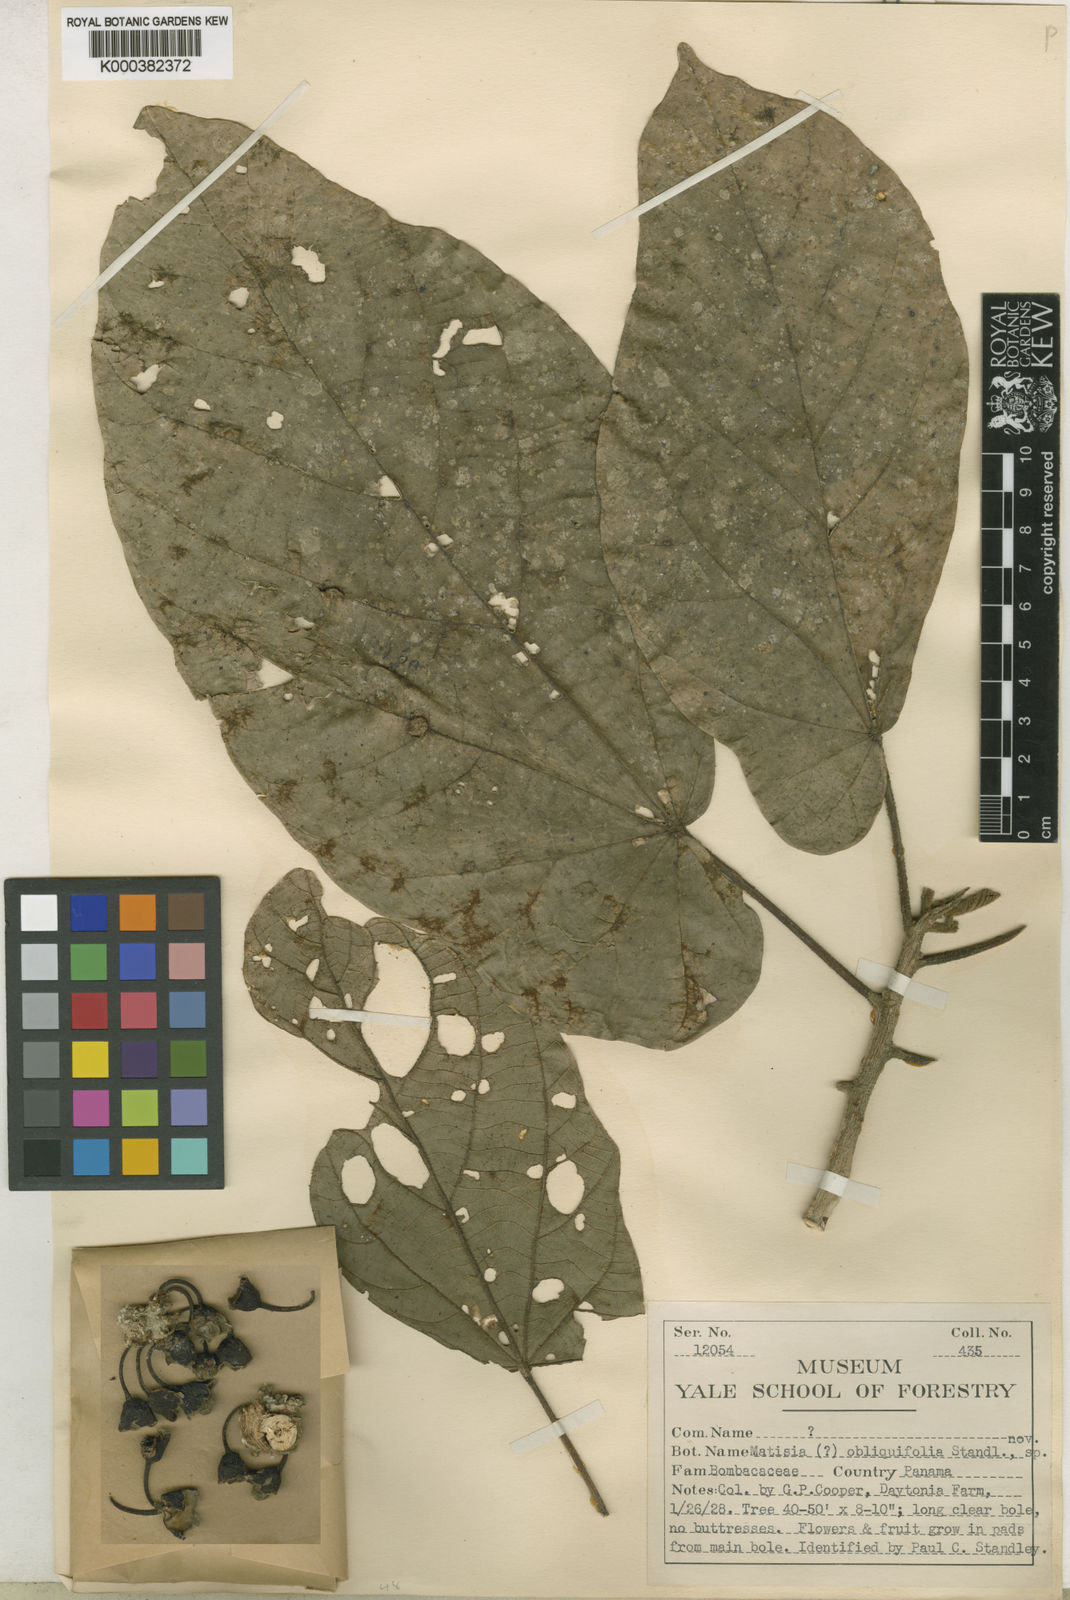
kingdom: Plantae
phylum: Tracheophyta
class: Magnoliopsida
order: Malvales
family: Malvaceae
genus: Matisia
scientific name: Matisia obliquifolia
